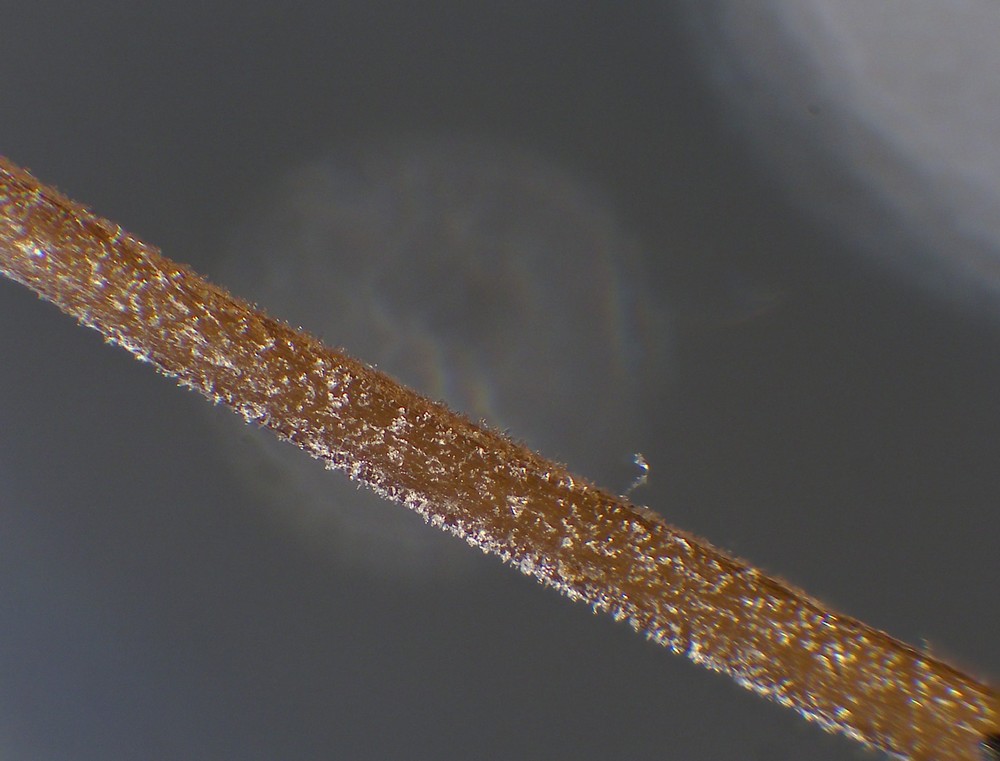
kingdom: Fungi
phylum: Basidiomycota
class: Agaricomycetes
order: Agaricales
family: Physalacriaceae
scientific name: Physalacriaceae
